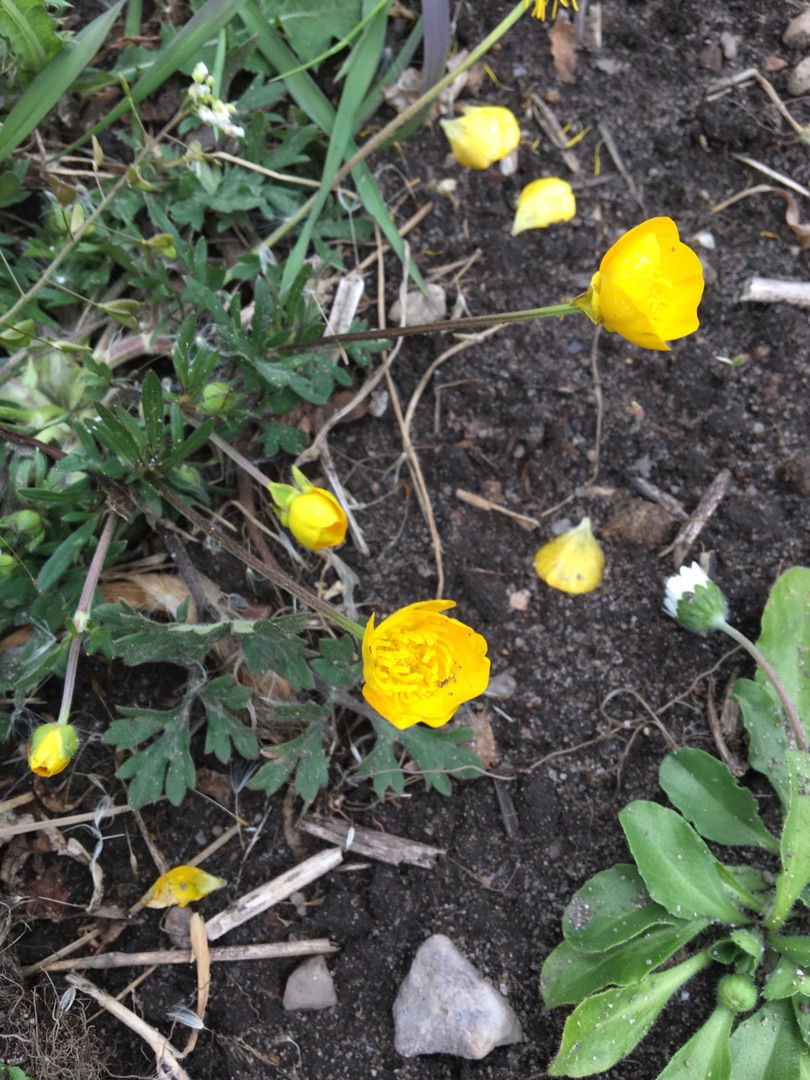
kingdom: Plantae
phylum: Tracheophyta
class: Magnoliopsida
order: Ranunculales
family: Ranunculaceae
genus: Ranunculus
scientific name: Ranunculus bulbosus
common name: Knold-ranunkel
